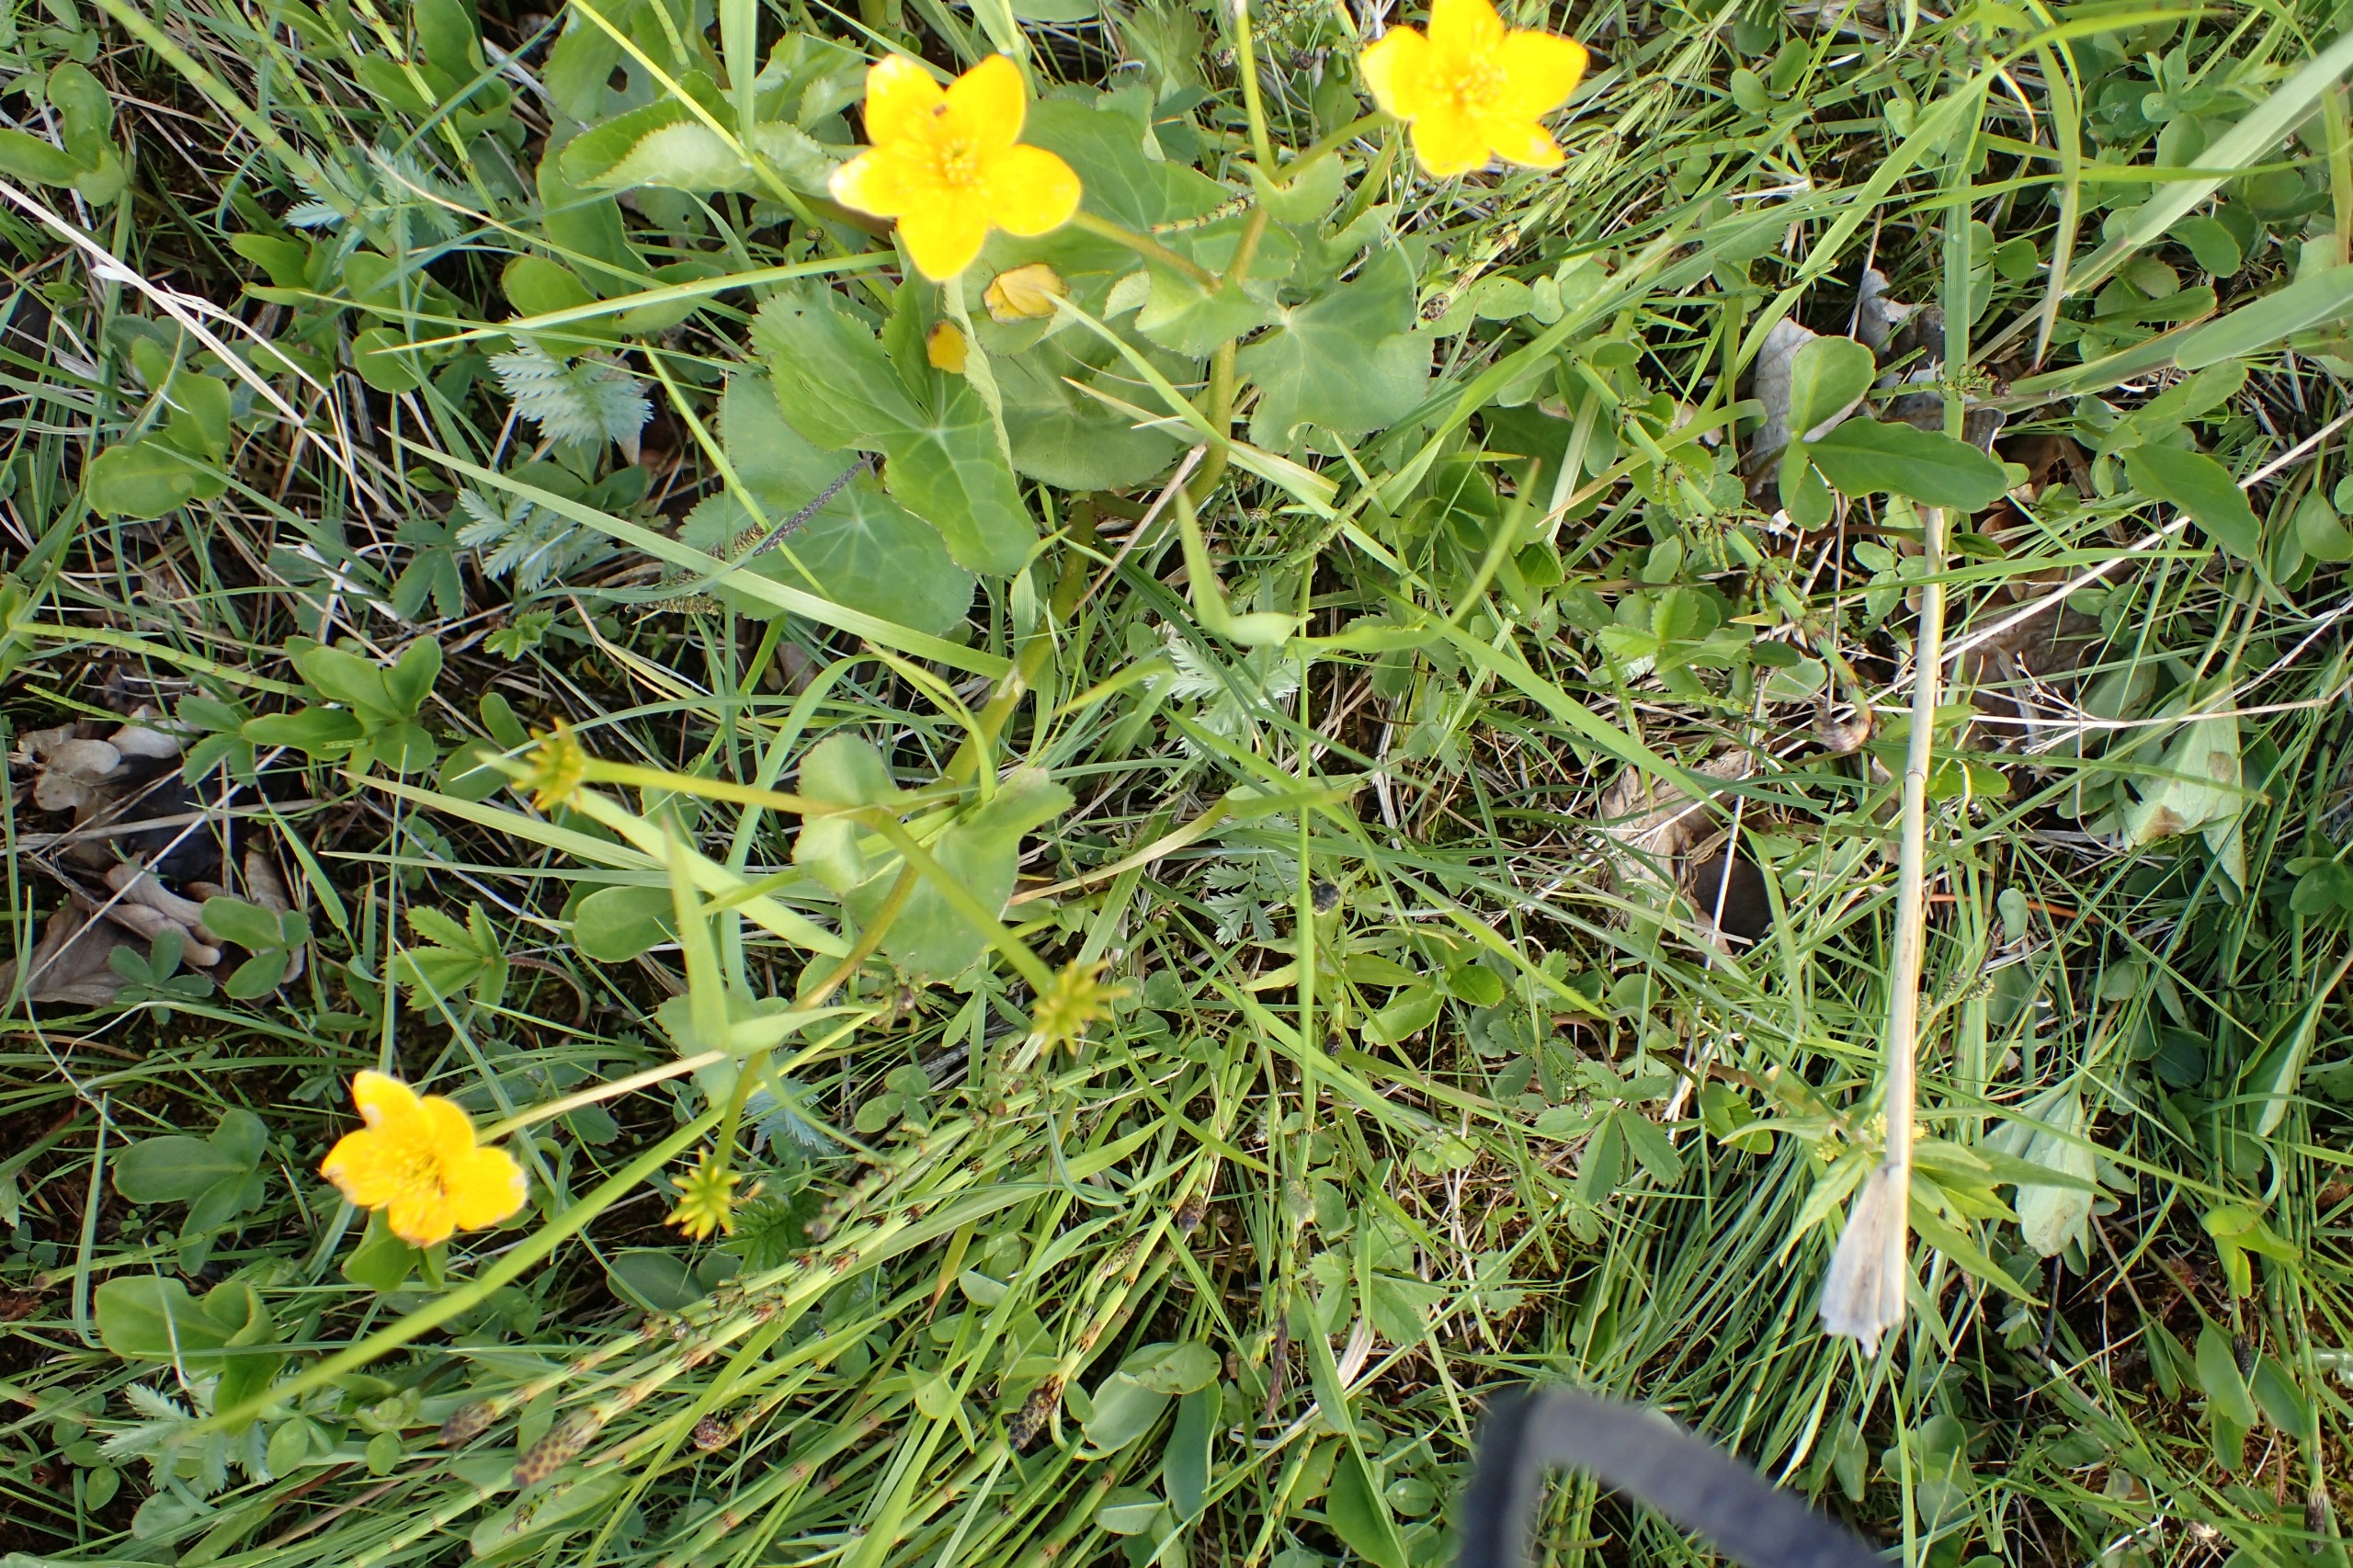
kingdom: Plantae
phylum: Tracheophyta
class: Magnoliopsida
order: Ranunculales
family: Ranunculaceae
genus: Caltha
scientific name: Caltha palustris
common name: Eng-kabbeleje
